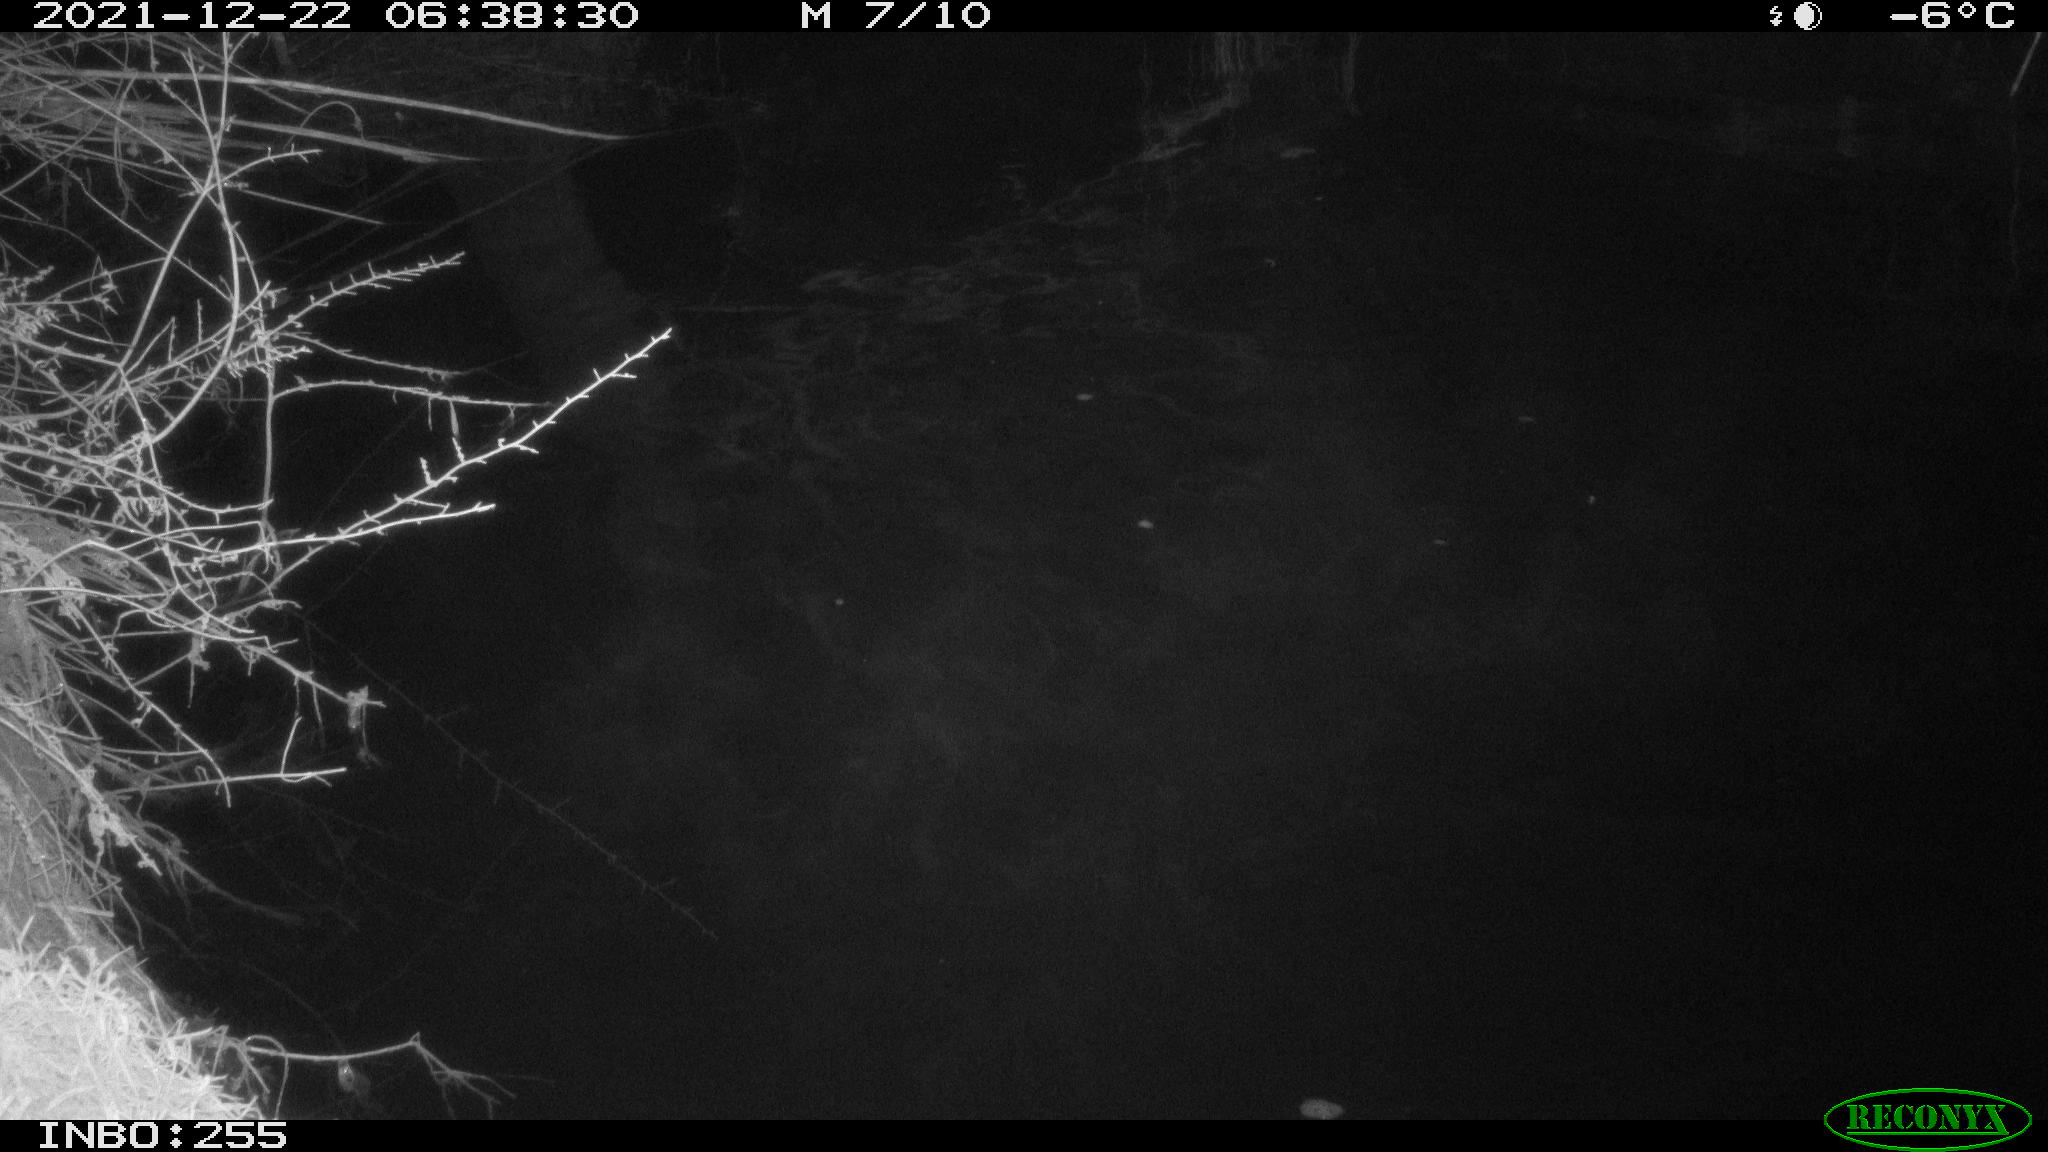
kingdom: Animalia
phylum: Chordata
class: Aves
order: Anseriformes
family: Anatidae
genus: Anas
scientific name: Anas platyrhynchos
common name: Mallard
